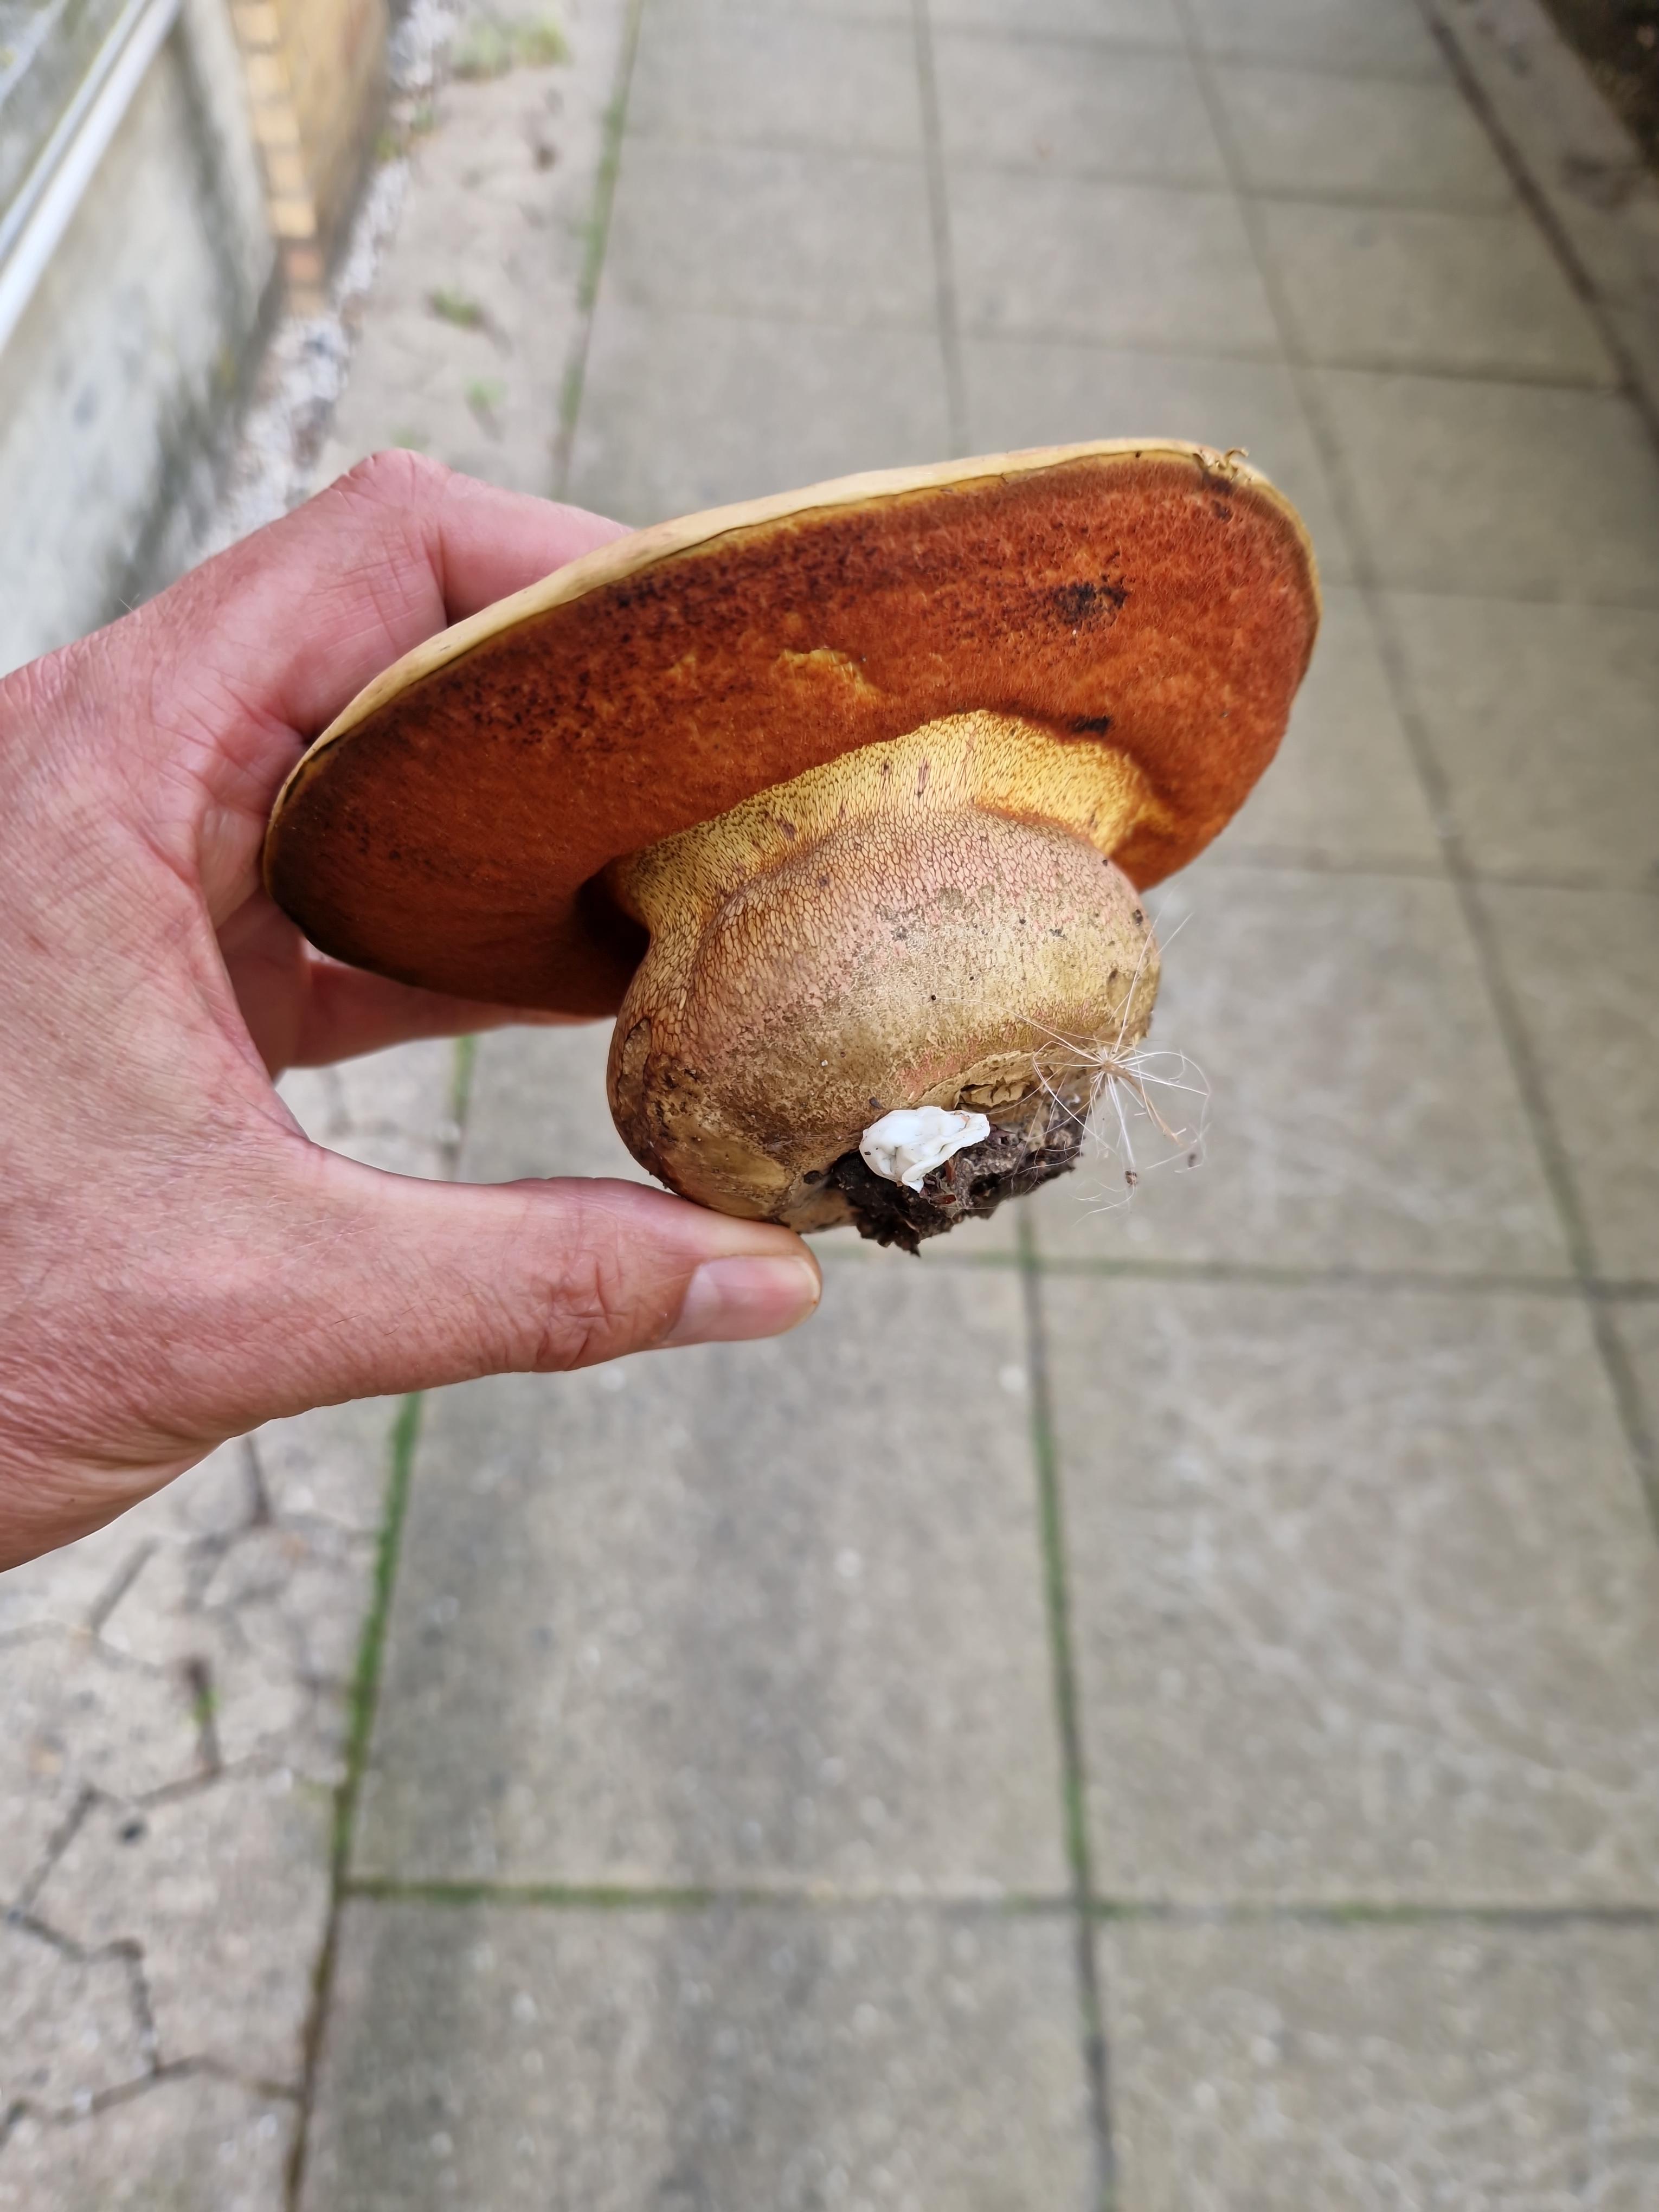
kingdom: Fungi
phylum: Basidiomycota
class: Agaricomycetes
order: Boletales
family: Boletaceae
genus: Suillellus
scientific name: Suillellus luridus
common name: netstokket indigorørhat
